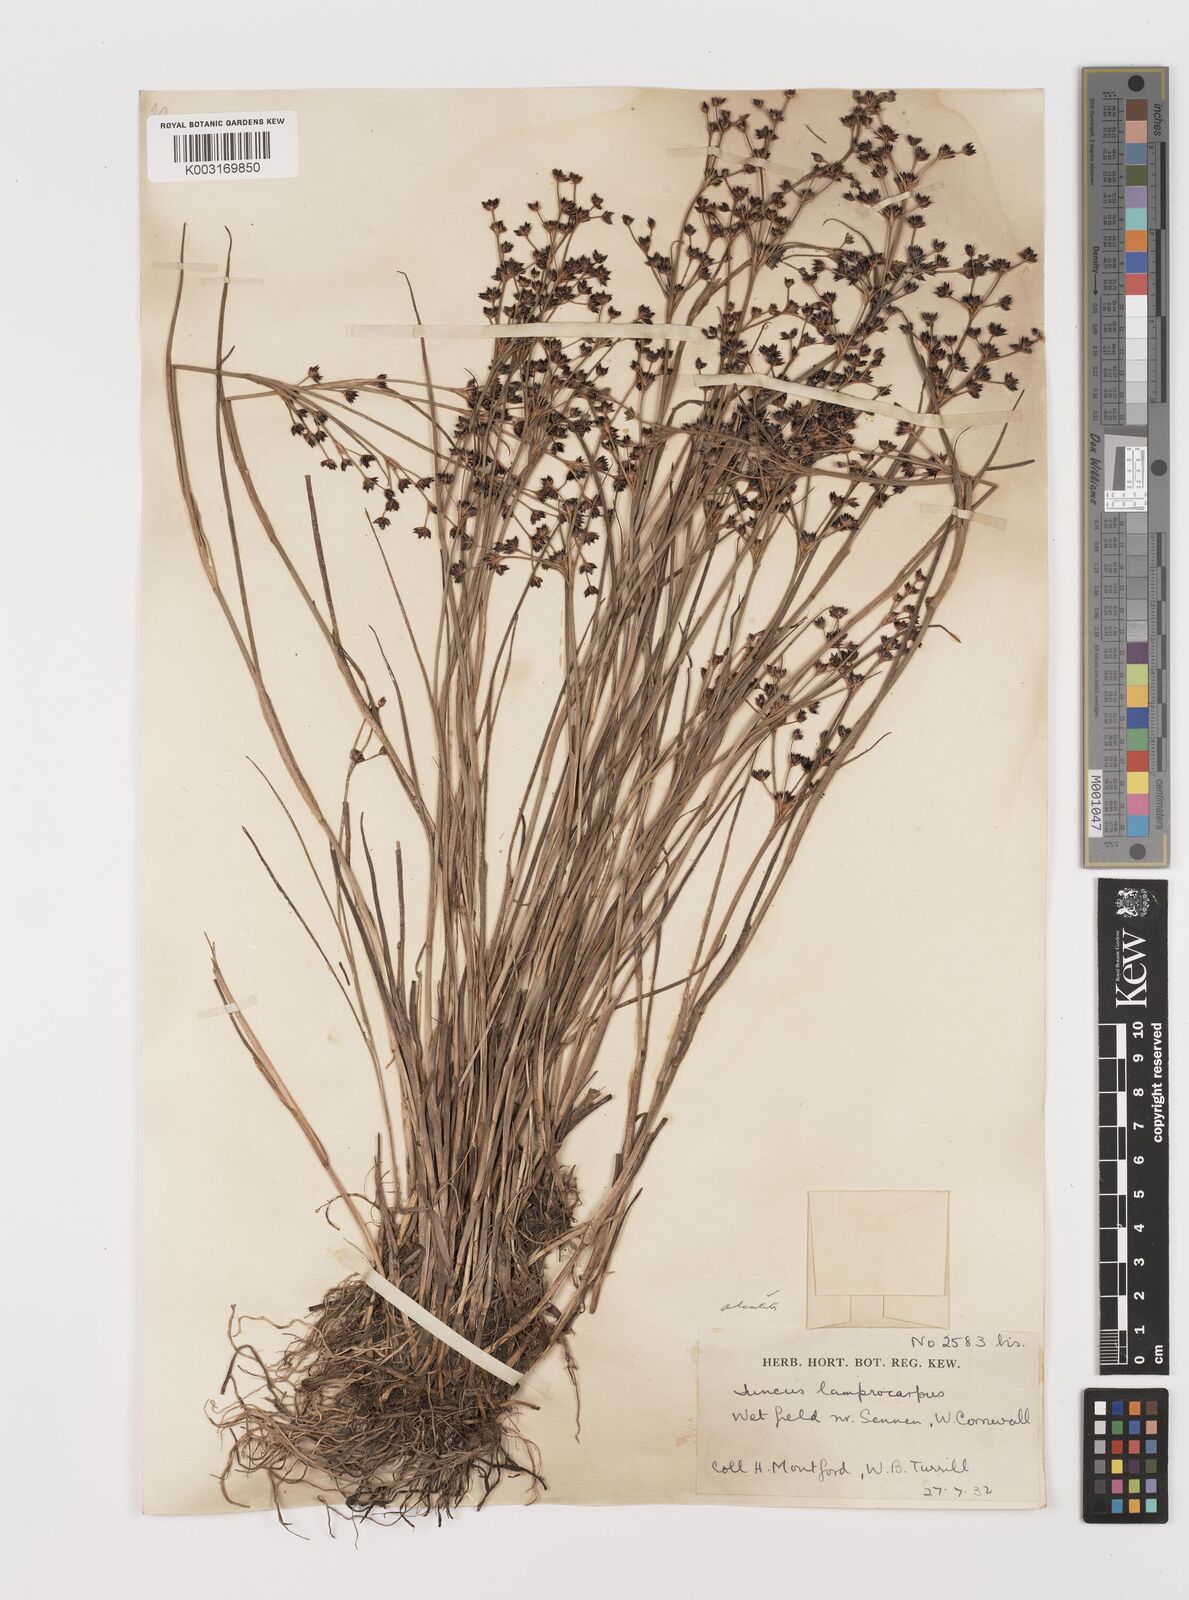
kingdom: Plantae
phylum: Tracheophyta
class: Liliopsida
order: Poales
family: Juncaceae
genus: Juncus
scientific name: Juncus articulatus
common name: Jointed rush
